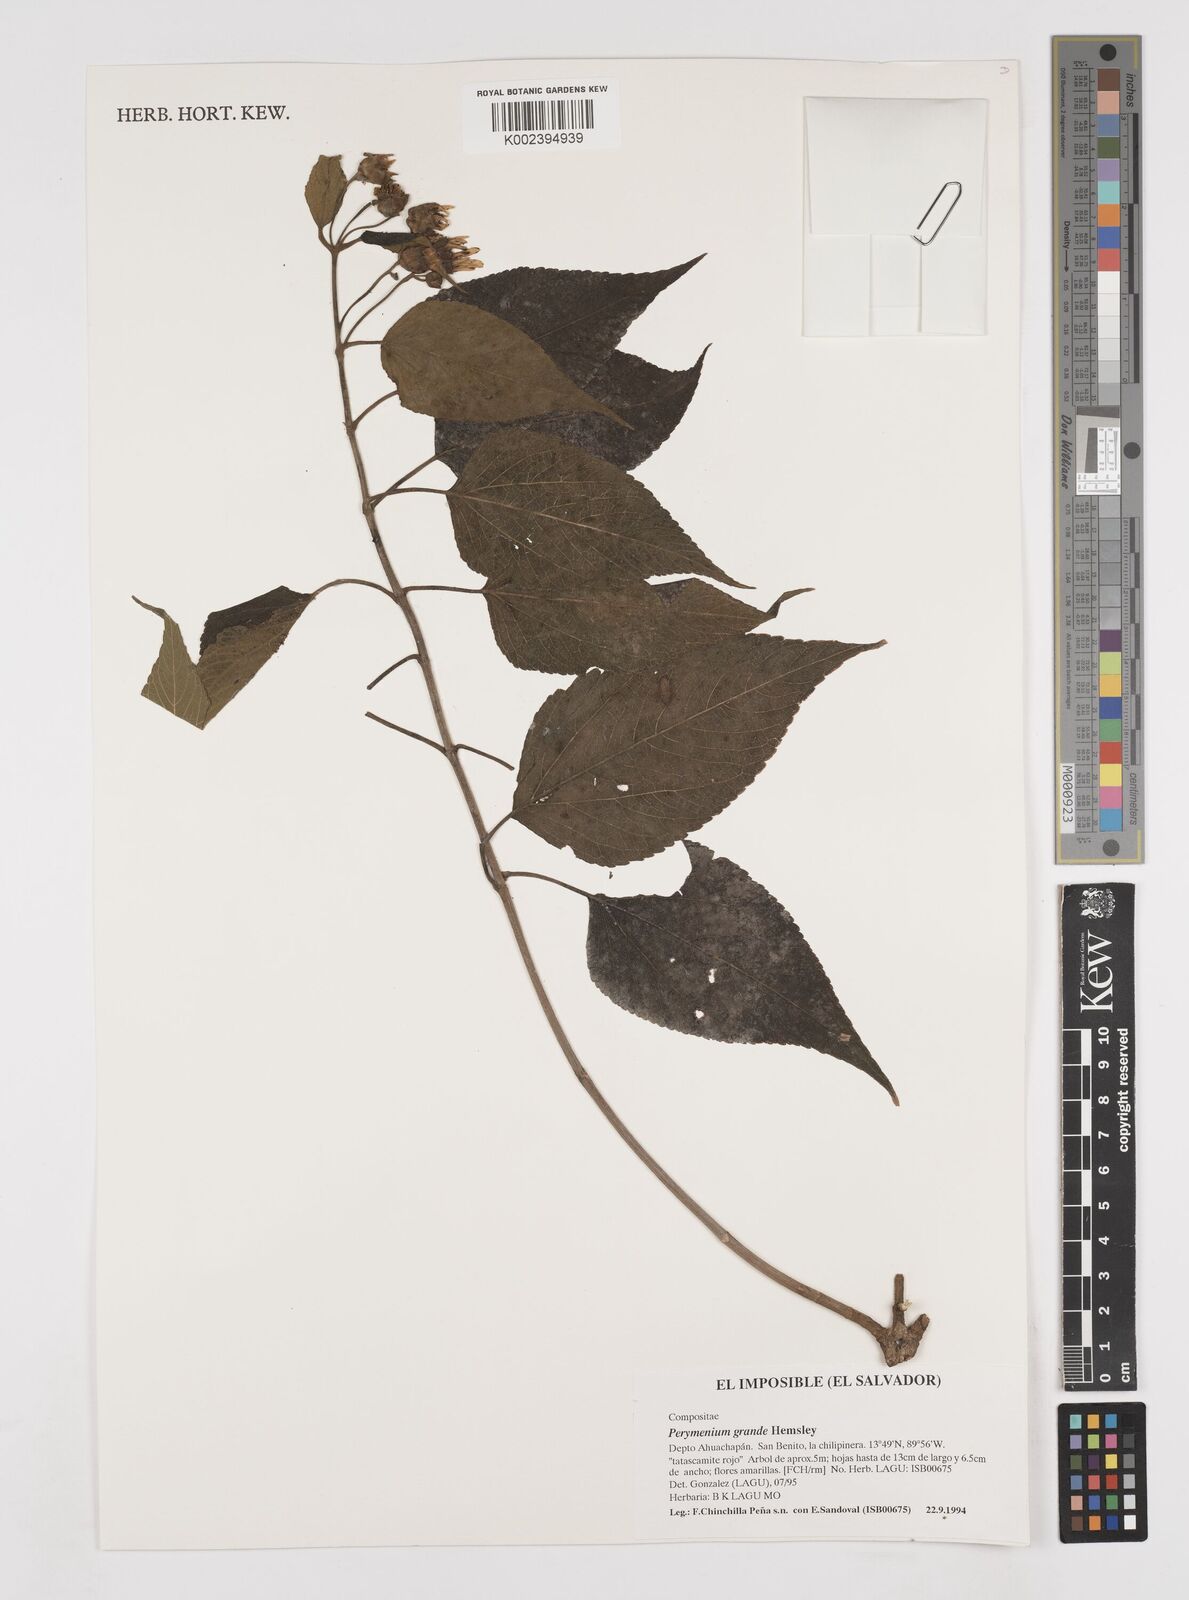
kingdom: Plantae
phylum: Tracheophyta
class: Magnoliopsida
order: Asterales
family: Asteraceae
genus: Perymenium
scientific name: Perymenium grande
